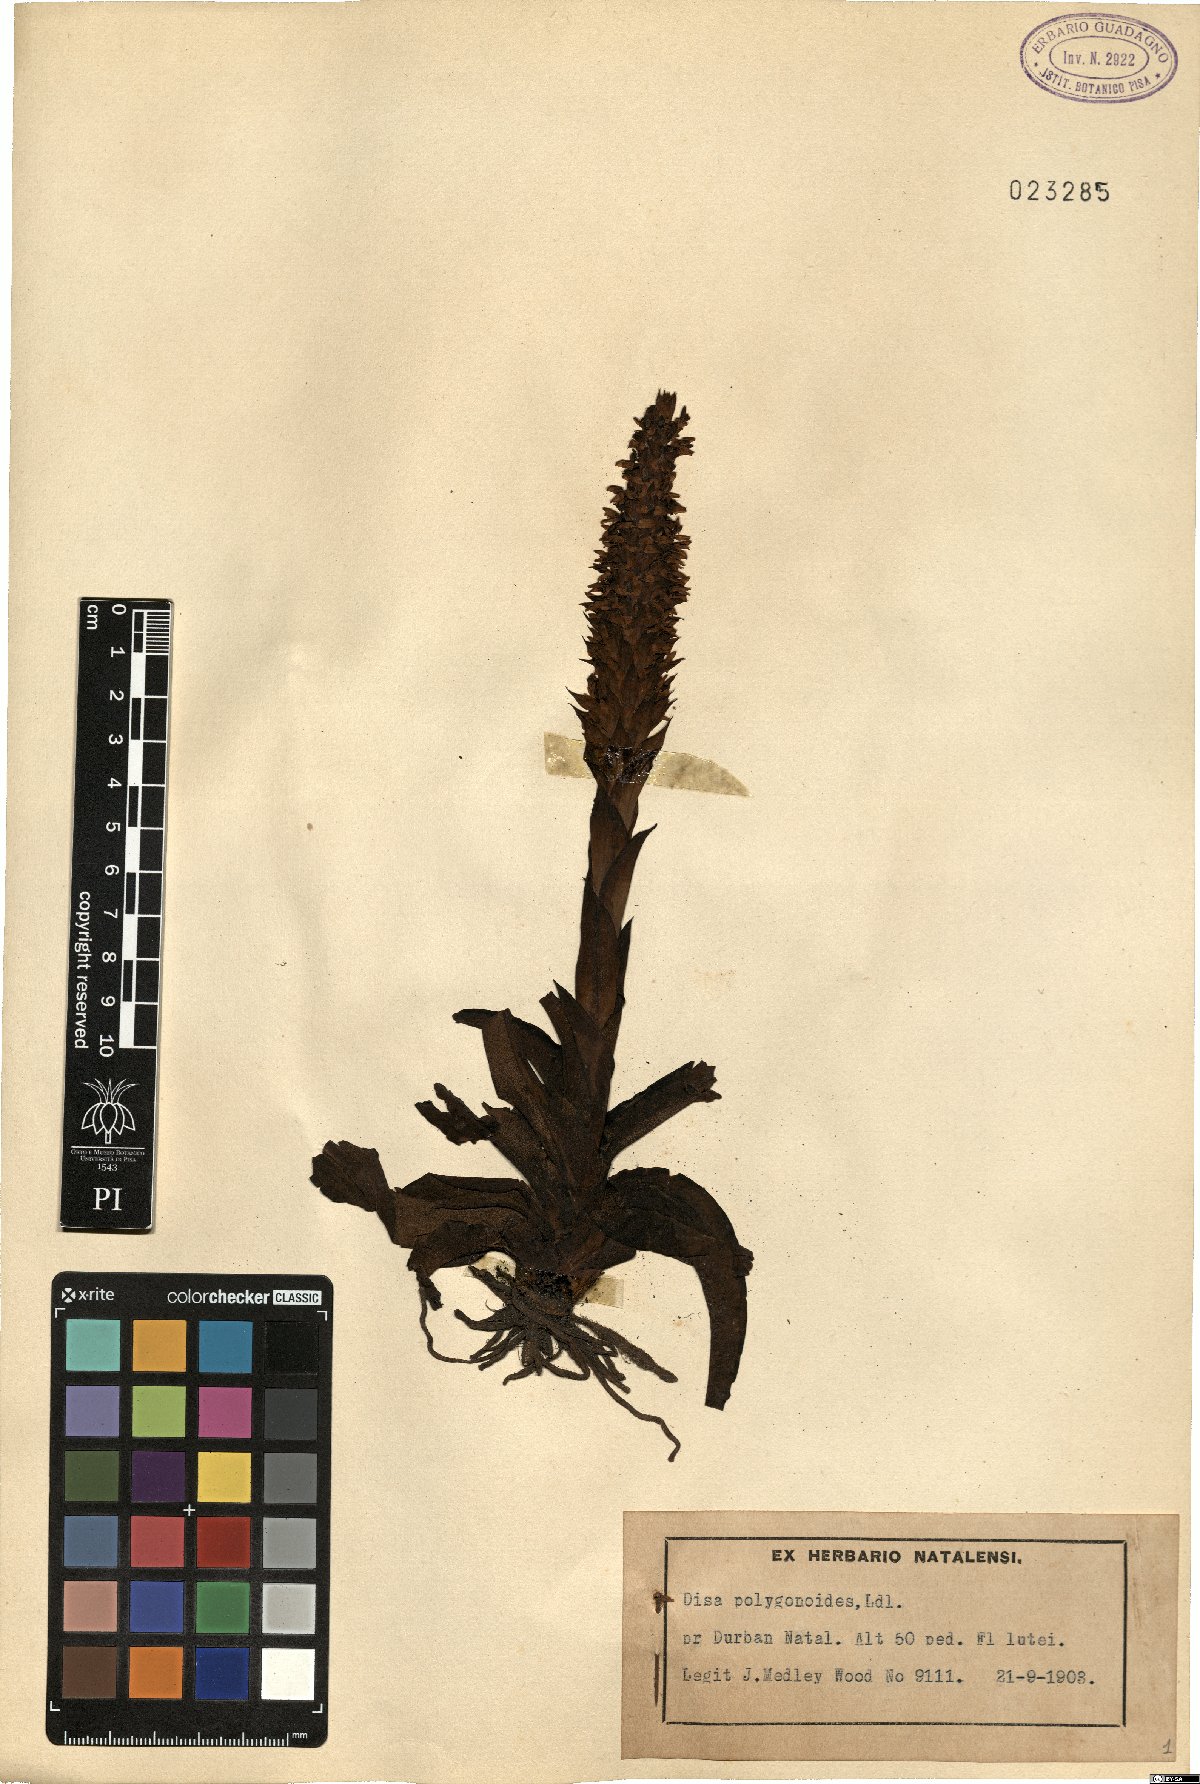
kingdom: Plantae
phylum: Tracheophyta
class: Liliopsida
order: Asparagales
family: Orchidaceae
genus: Disa
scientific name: Disa polygonoides
